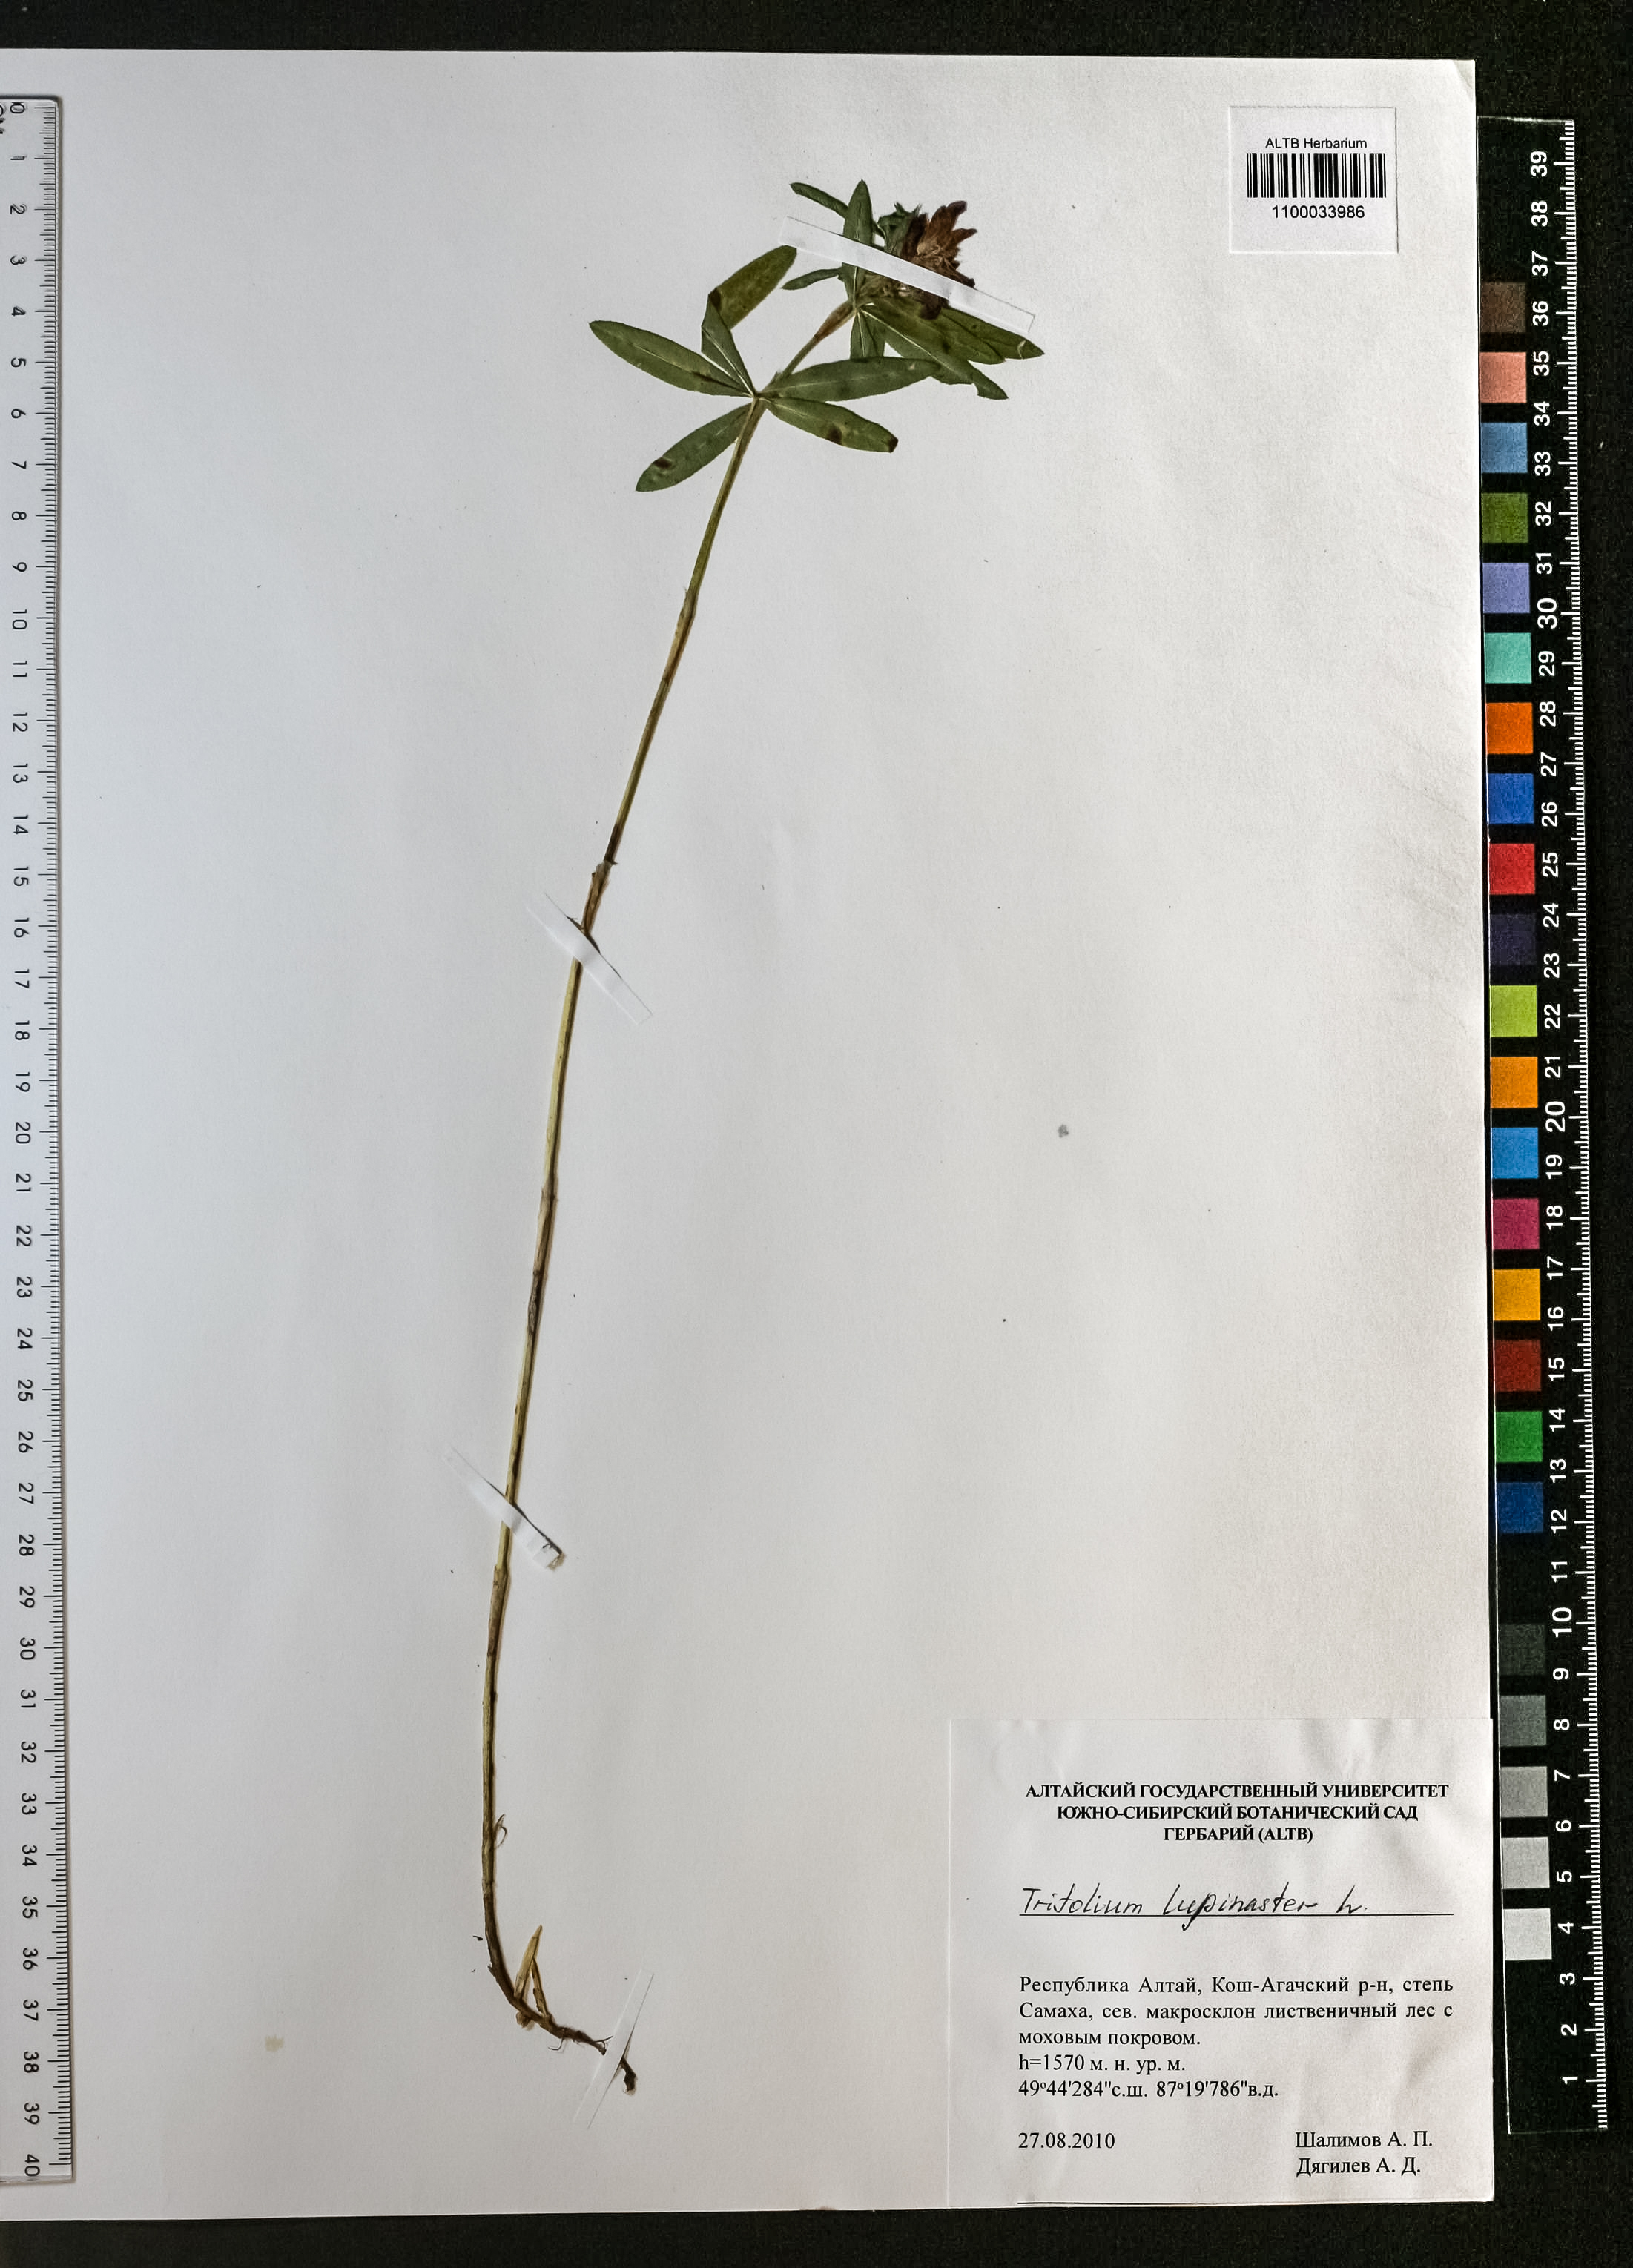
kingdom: Plantae
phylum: Tracheophyta
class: Magnoliopsida
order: Fabales
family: Fabaceae
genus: Trifolium
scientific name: Trifolium lupinaster
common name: Lupine clover
